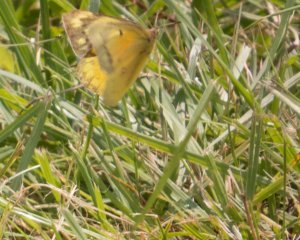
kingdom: Animalia
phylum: Arthropoda
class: Insecta
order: Lepidoptera
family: Pieridae
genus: Colias
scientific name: Colias eurytheme
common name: Orange Sulphur
